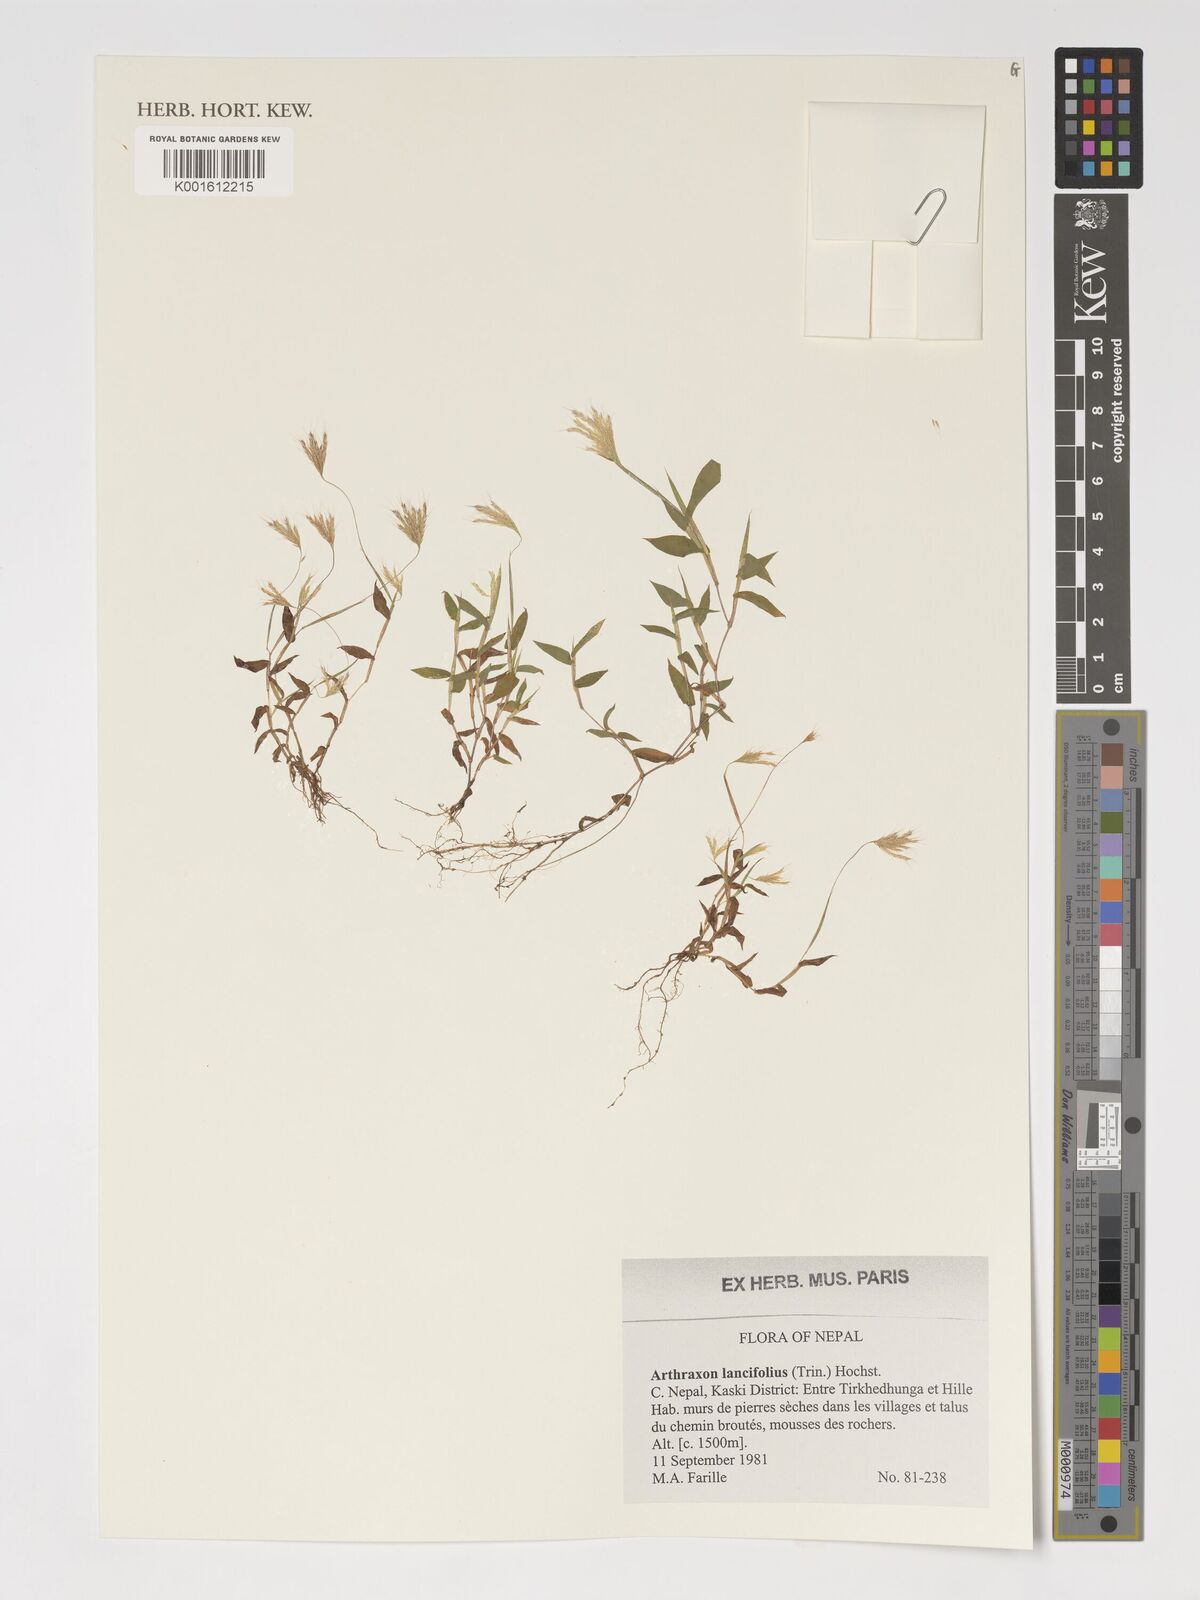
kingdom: Plantae
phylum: Tracheophyta
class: Liliopsida
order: Poales
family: Poaceae
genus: Arthraxon
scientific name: Arthraxon lancifolius
